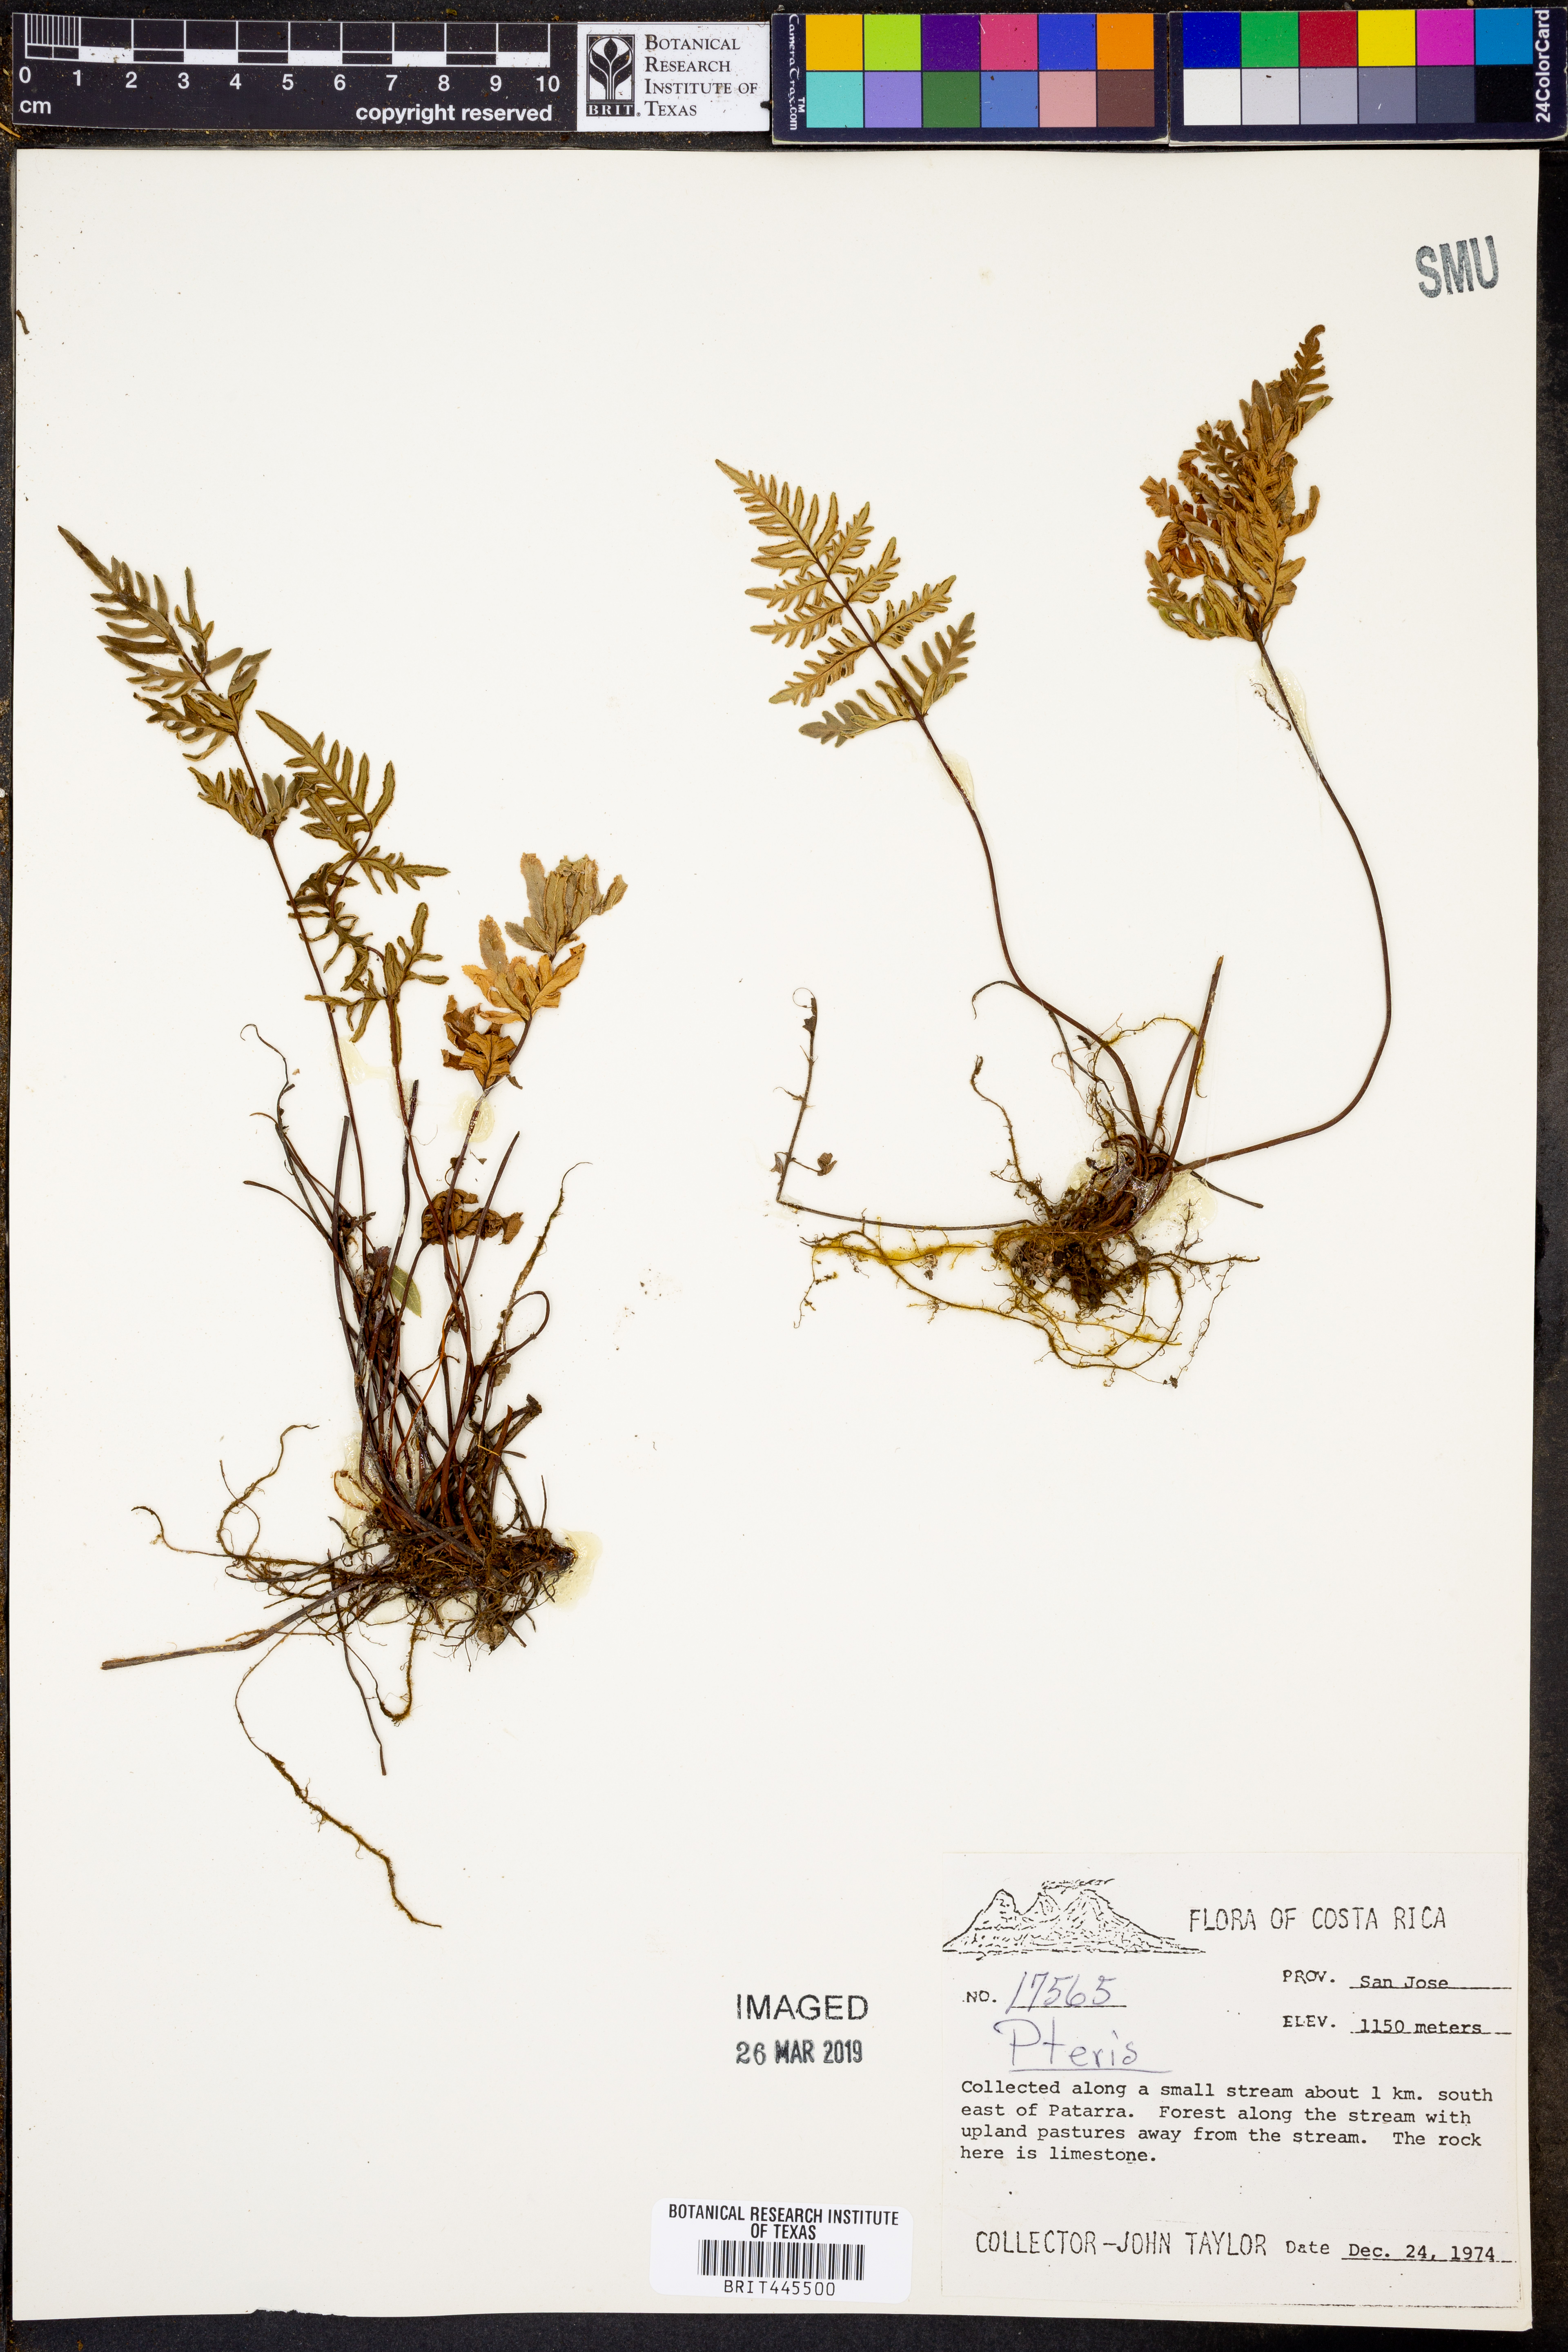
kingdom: Plantae
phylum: Tracheophyta
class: Polypodiopsida
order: Polypodiales
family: Pteridaceae
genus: Pteris
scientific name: Pteris
